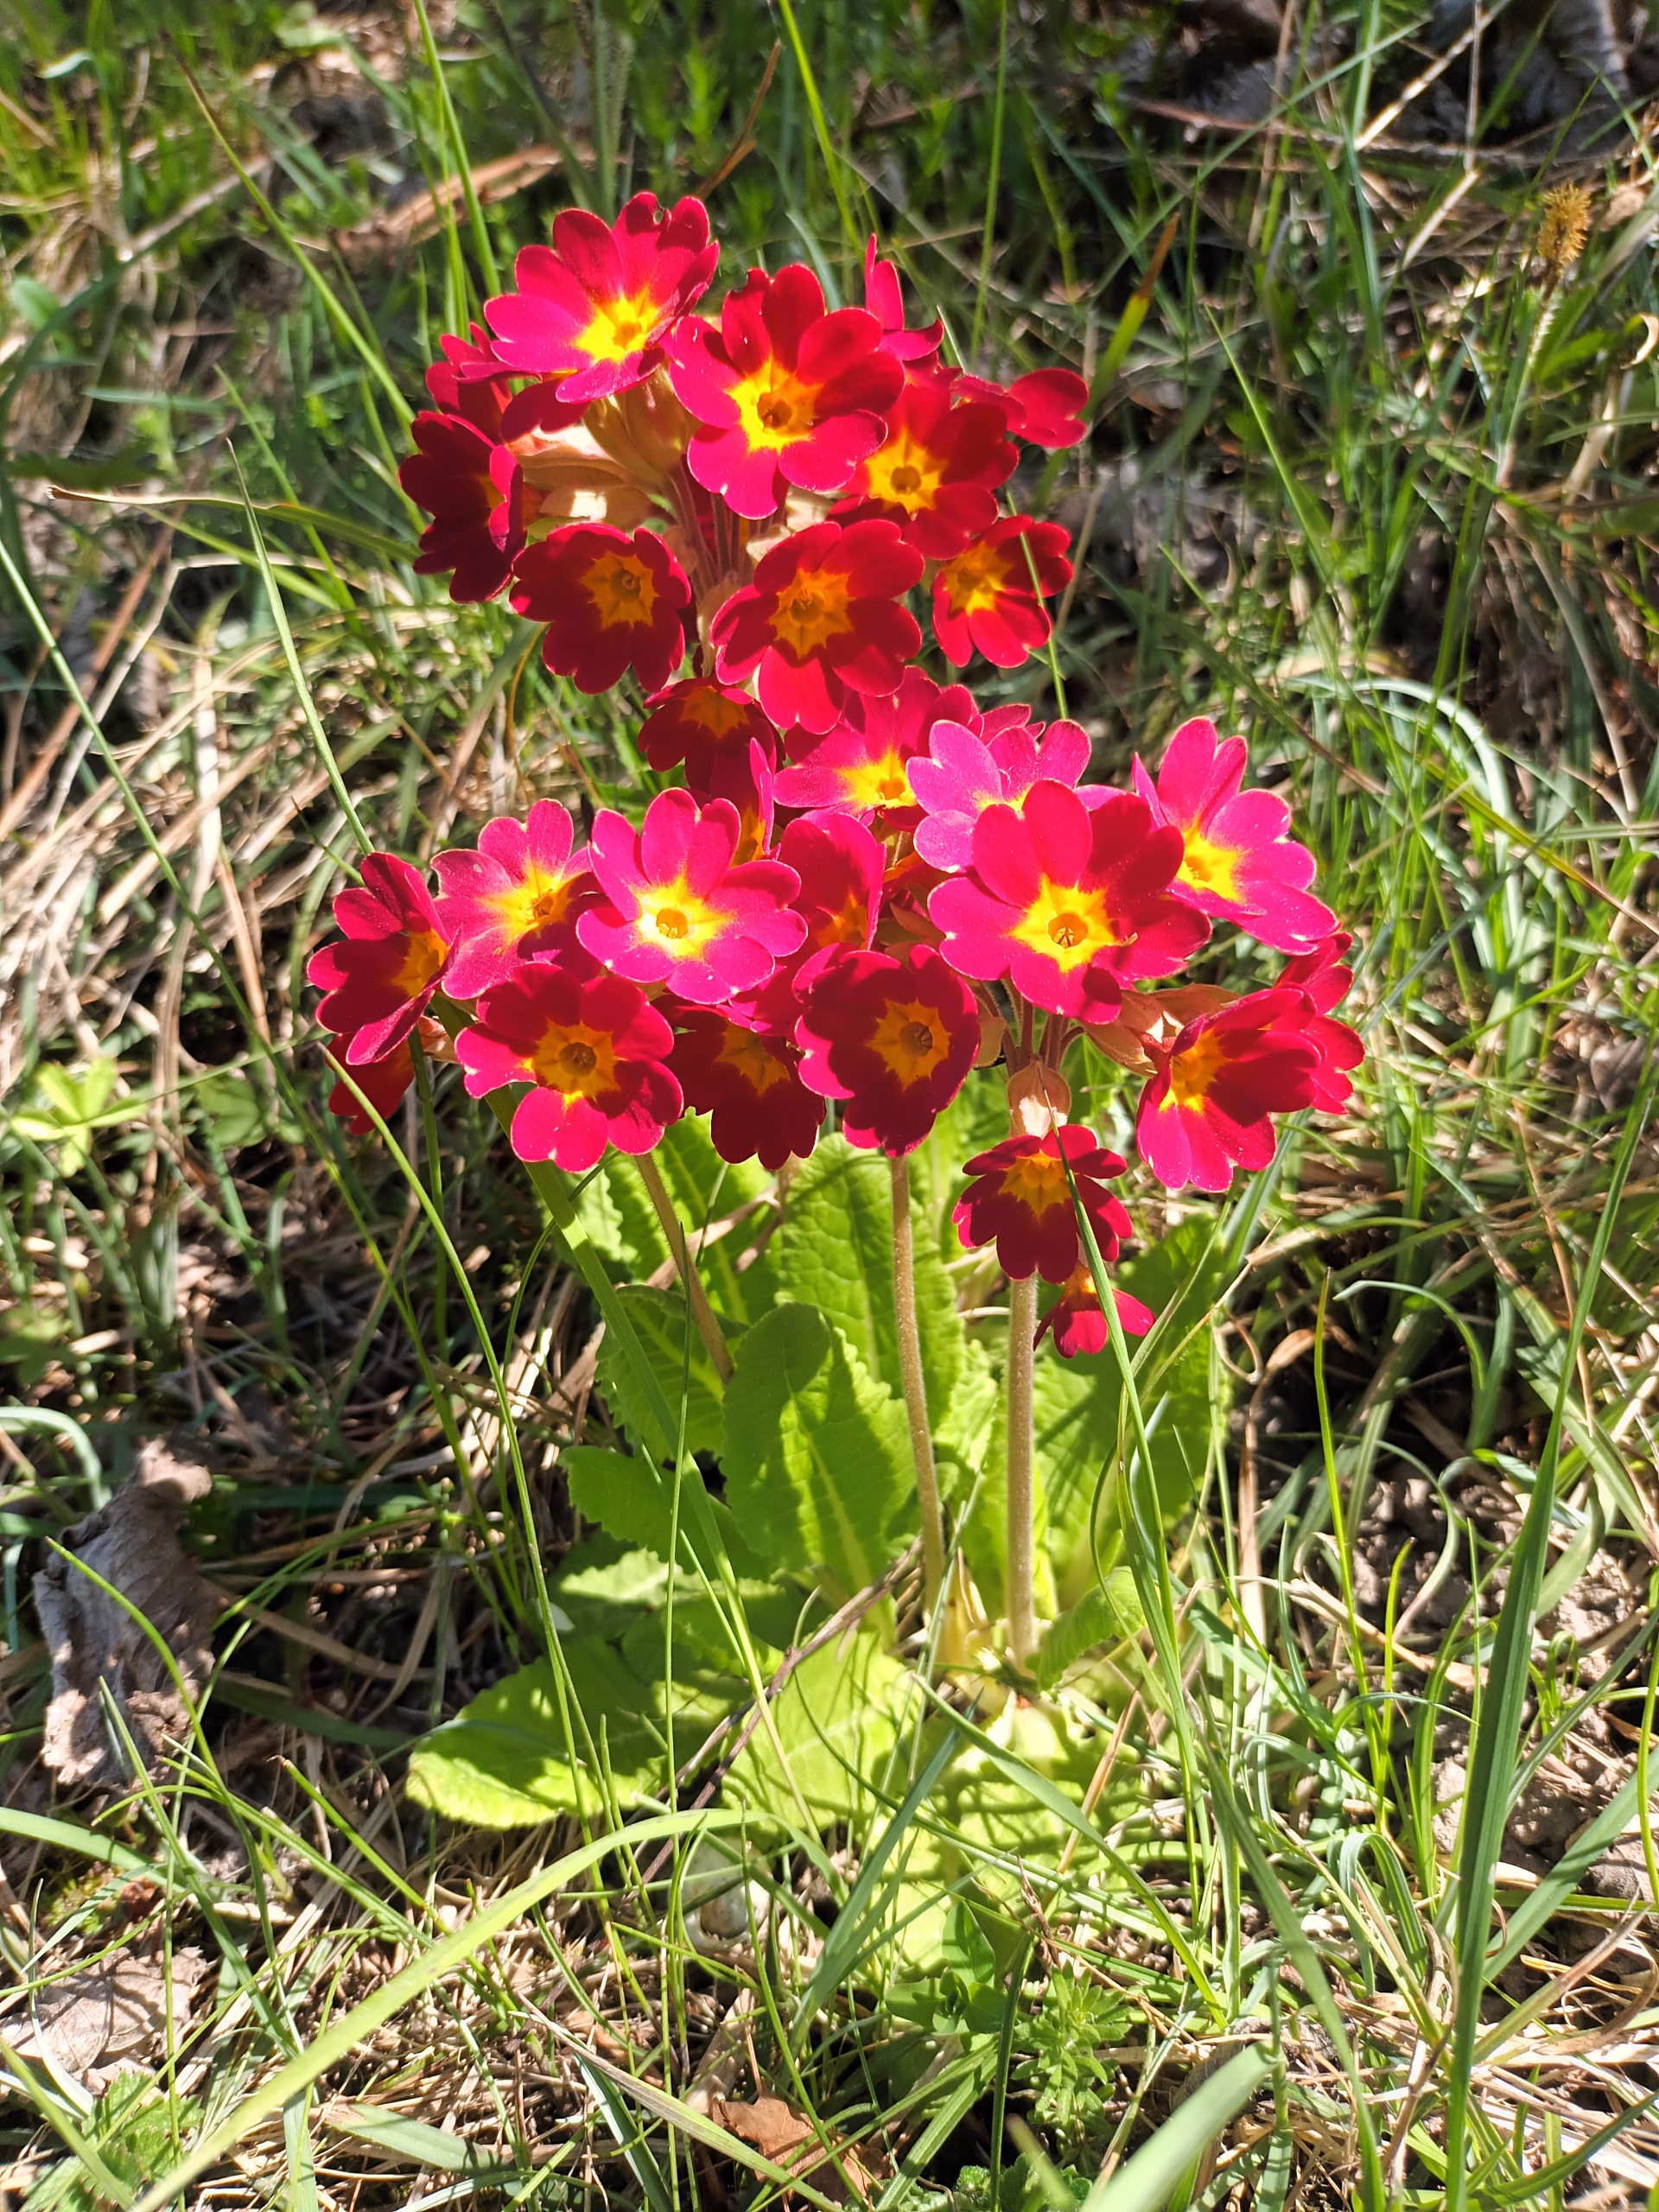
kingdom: Plantae
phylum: Tracheophyta
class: Magnoliopsida
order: Ericales
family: Primulaceae
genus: Primula
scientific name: Primula veris
